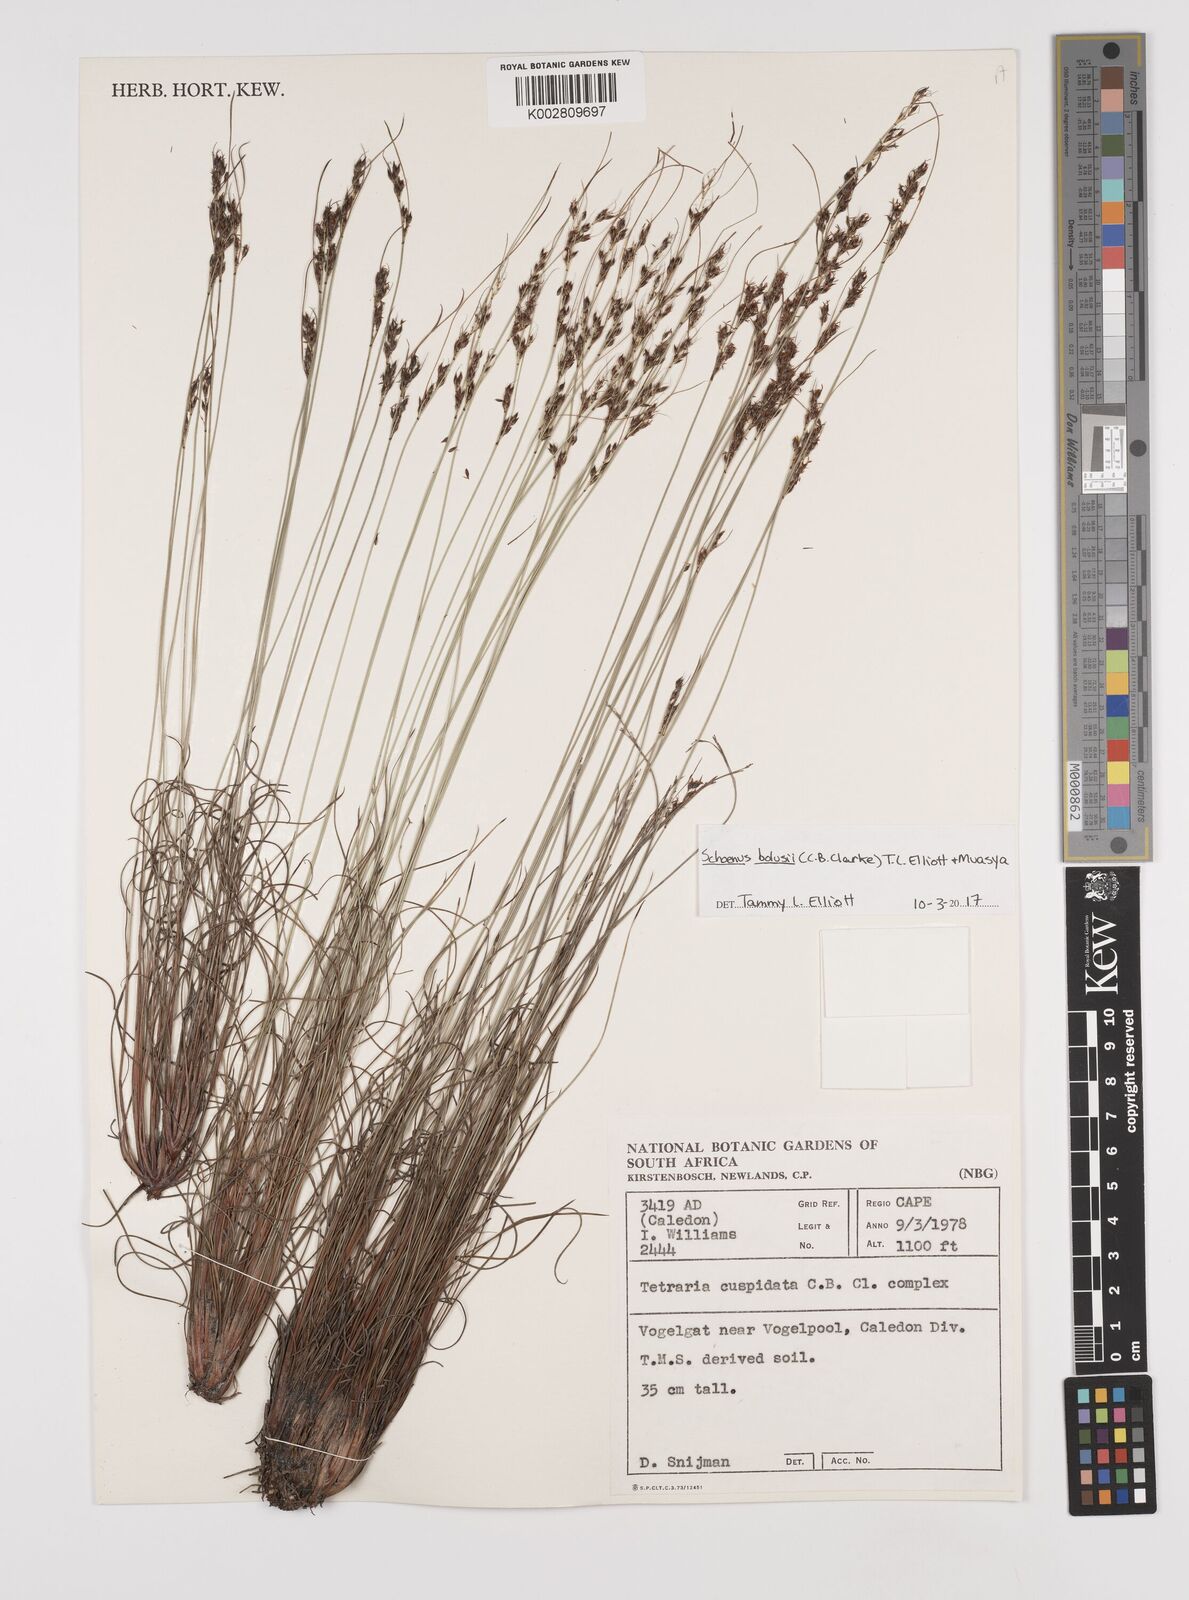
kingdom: Plantae
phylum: Tracheophyta
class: Liliopsida
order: Poales
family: Cyperaceae
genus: Schoenus
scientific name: Schoenus bolusii
